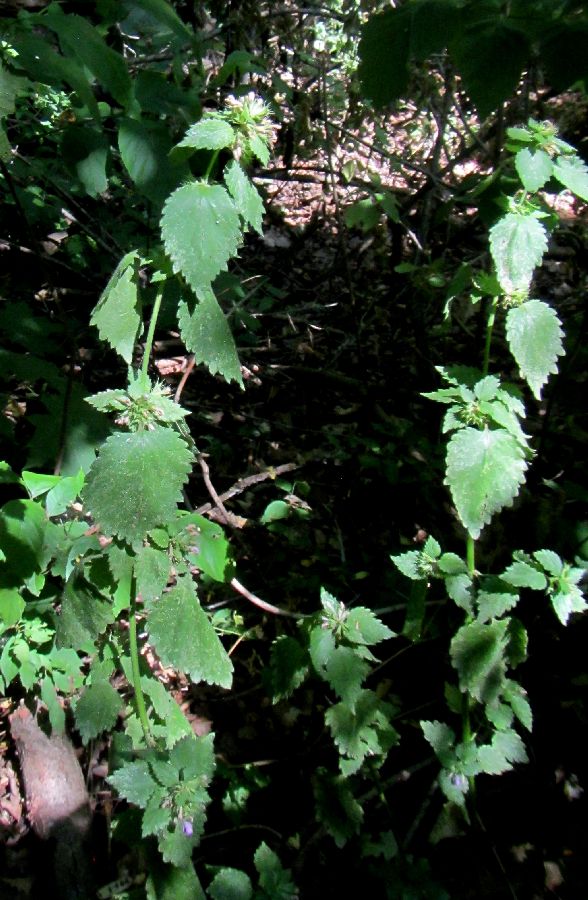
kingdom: Plantae
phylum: Tracheophyta
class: Magnoliopsida
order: Lamiales
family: Lamiaceae
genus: Ballota
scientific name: Ballota nigra
